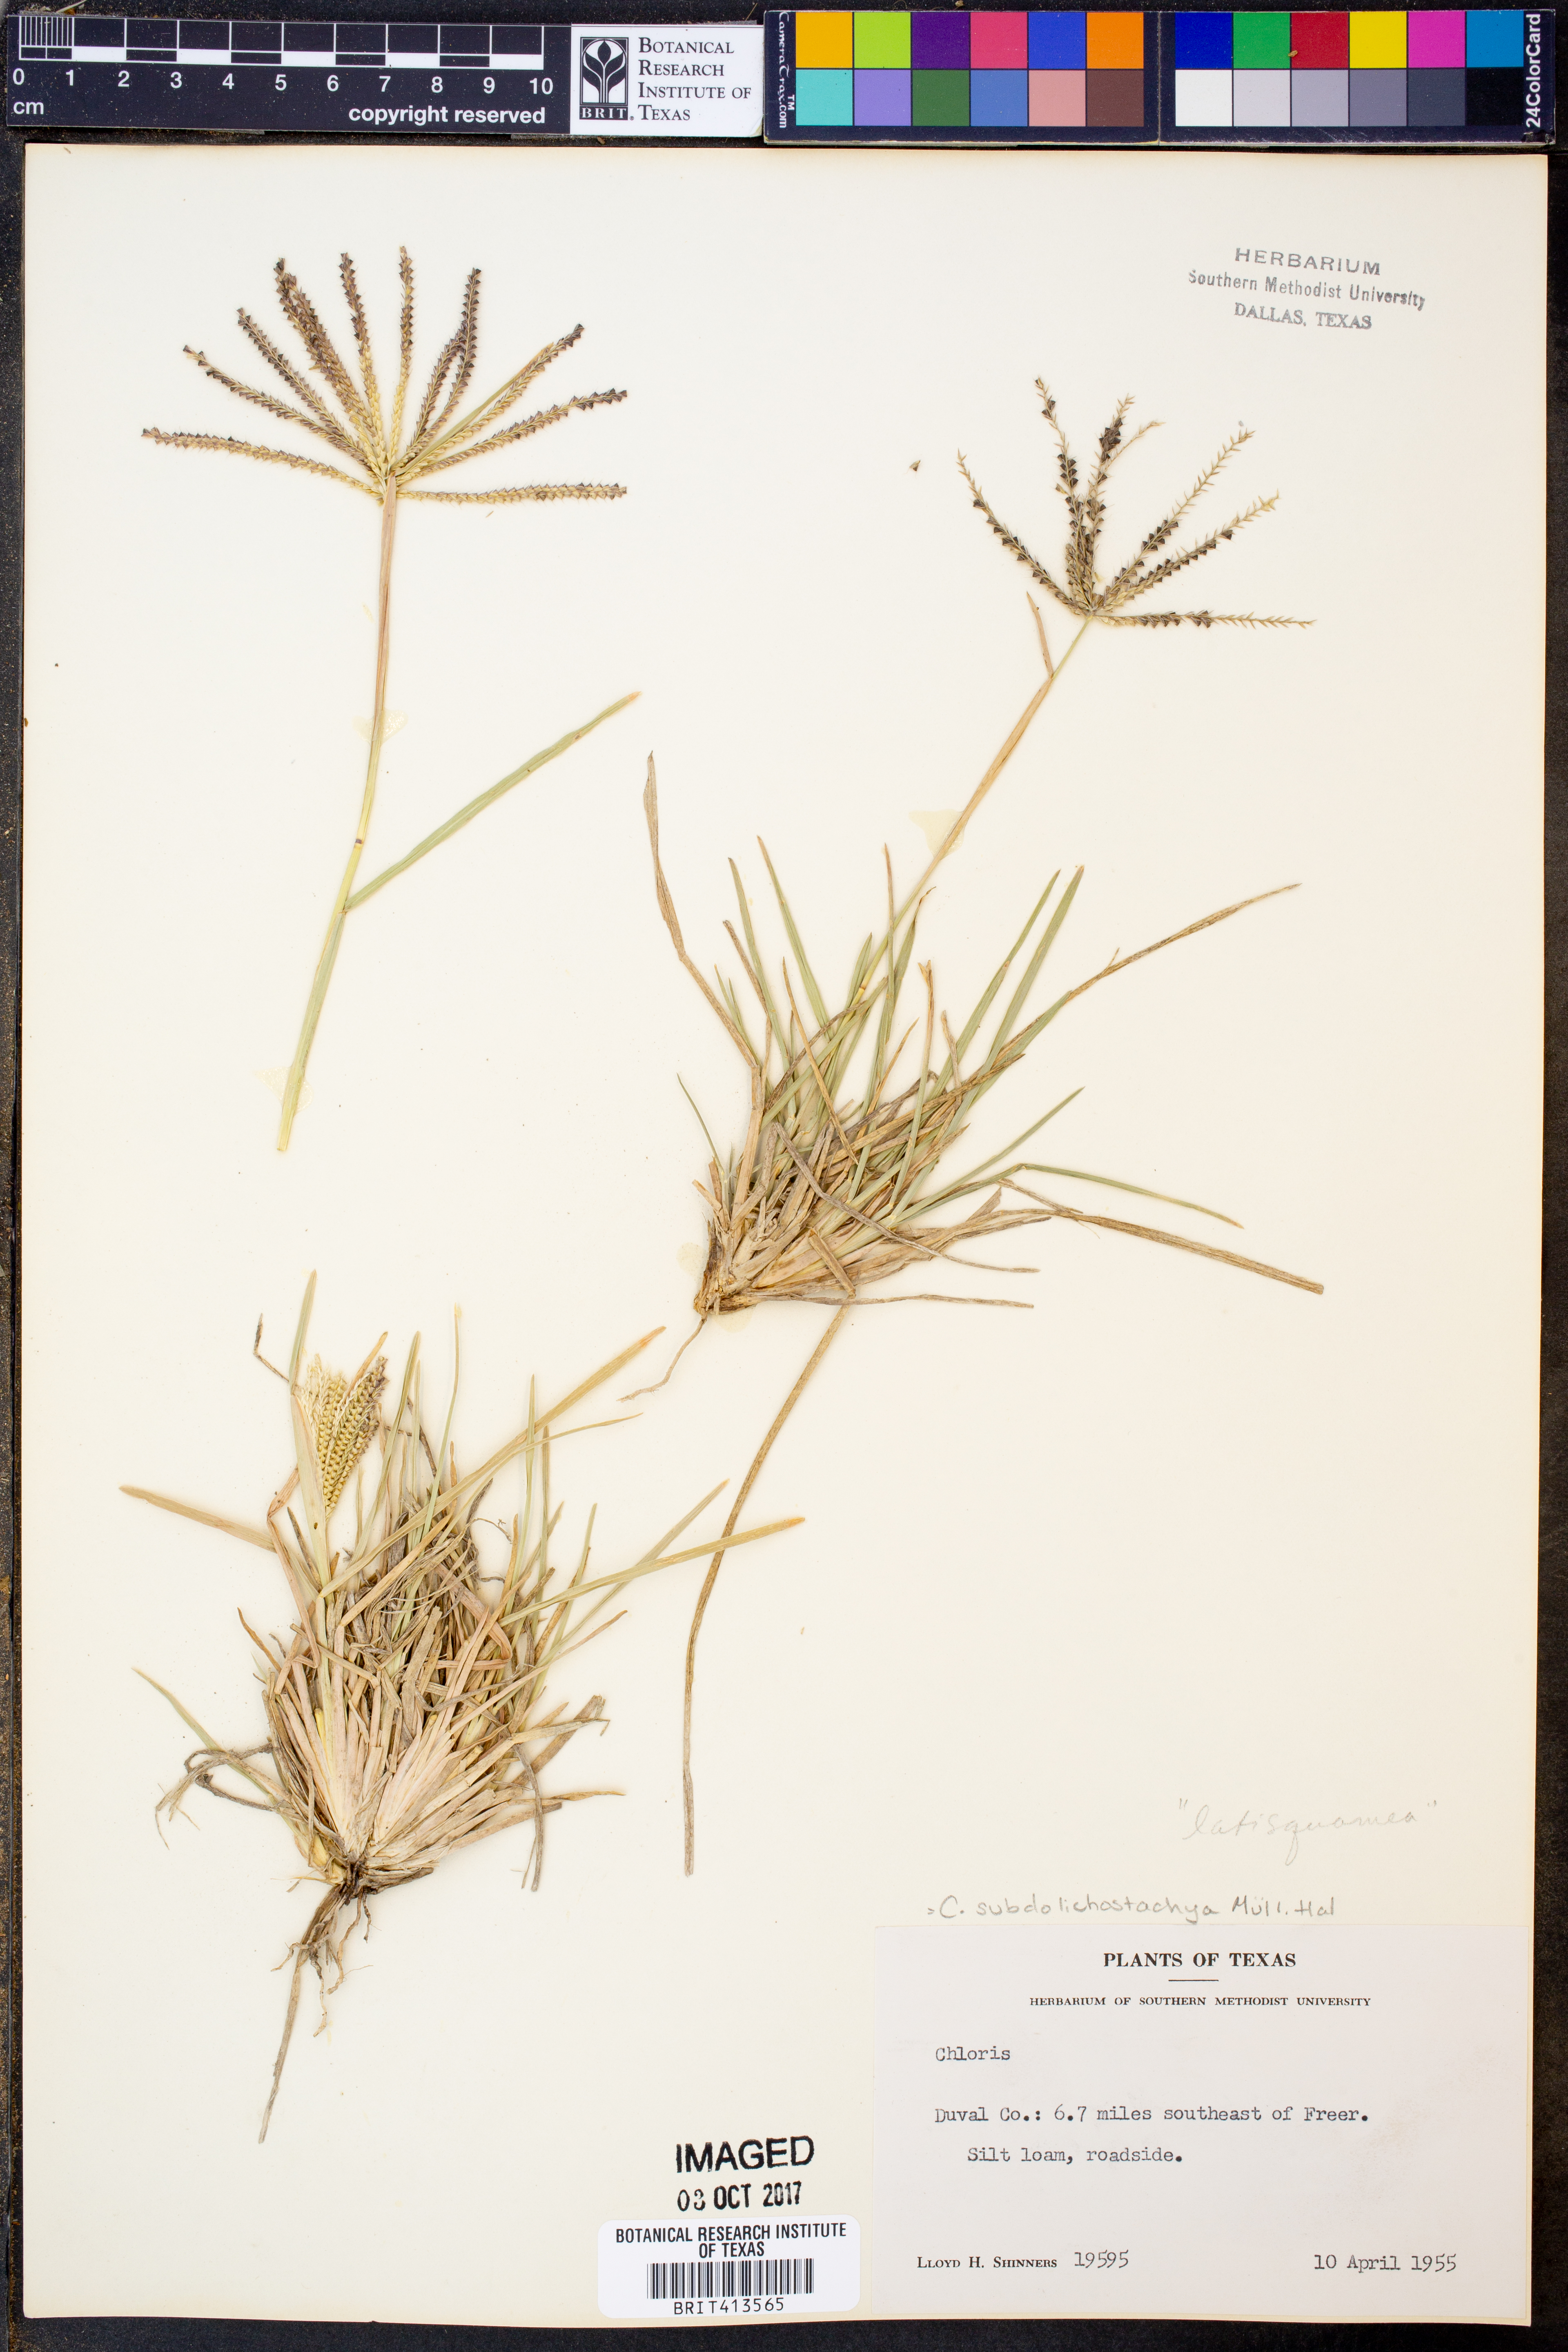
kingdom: Plantae
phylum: Tracheophyta
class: Liliopsida
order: Poales
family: Poaceae
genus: Chloris
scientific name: Chloris subdolichostachya
